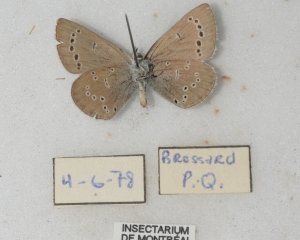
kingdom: Animalia
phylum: Arthropoda
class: Insecta
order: Lepidoptera
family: Lycaenidae
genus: Glaucopsyche
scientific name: Glaucopsyche lygdamus
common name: Silvery Blue
